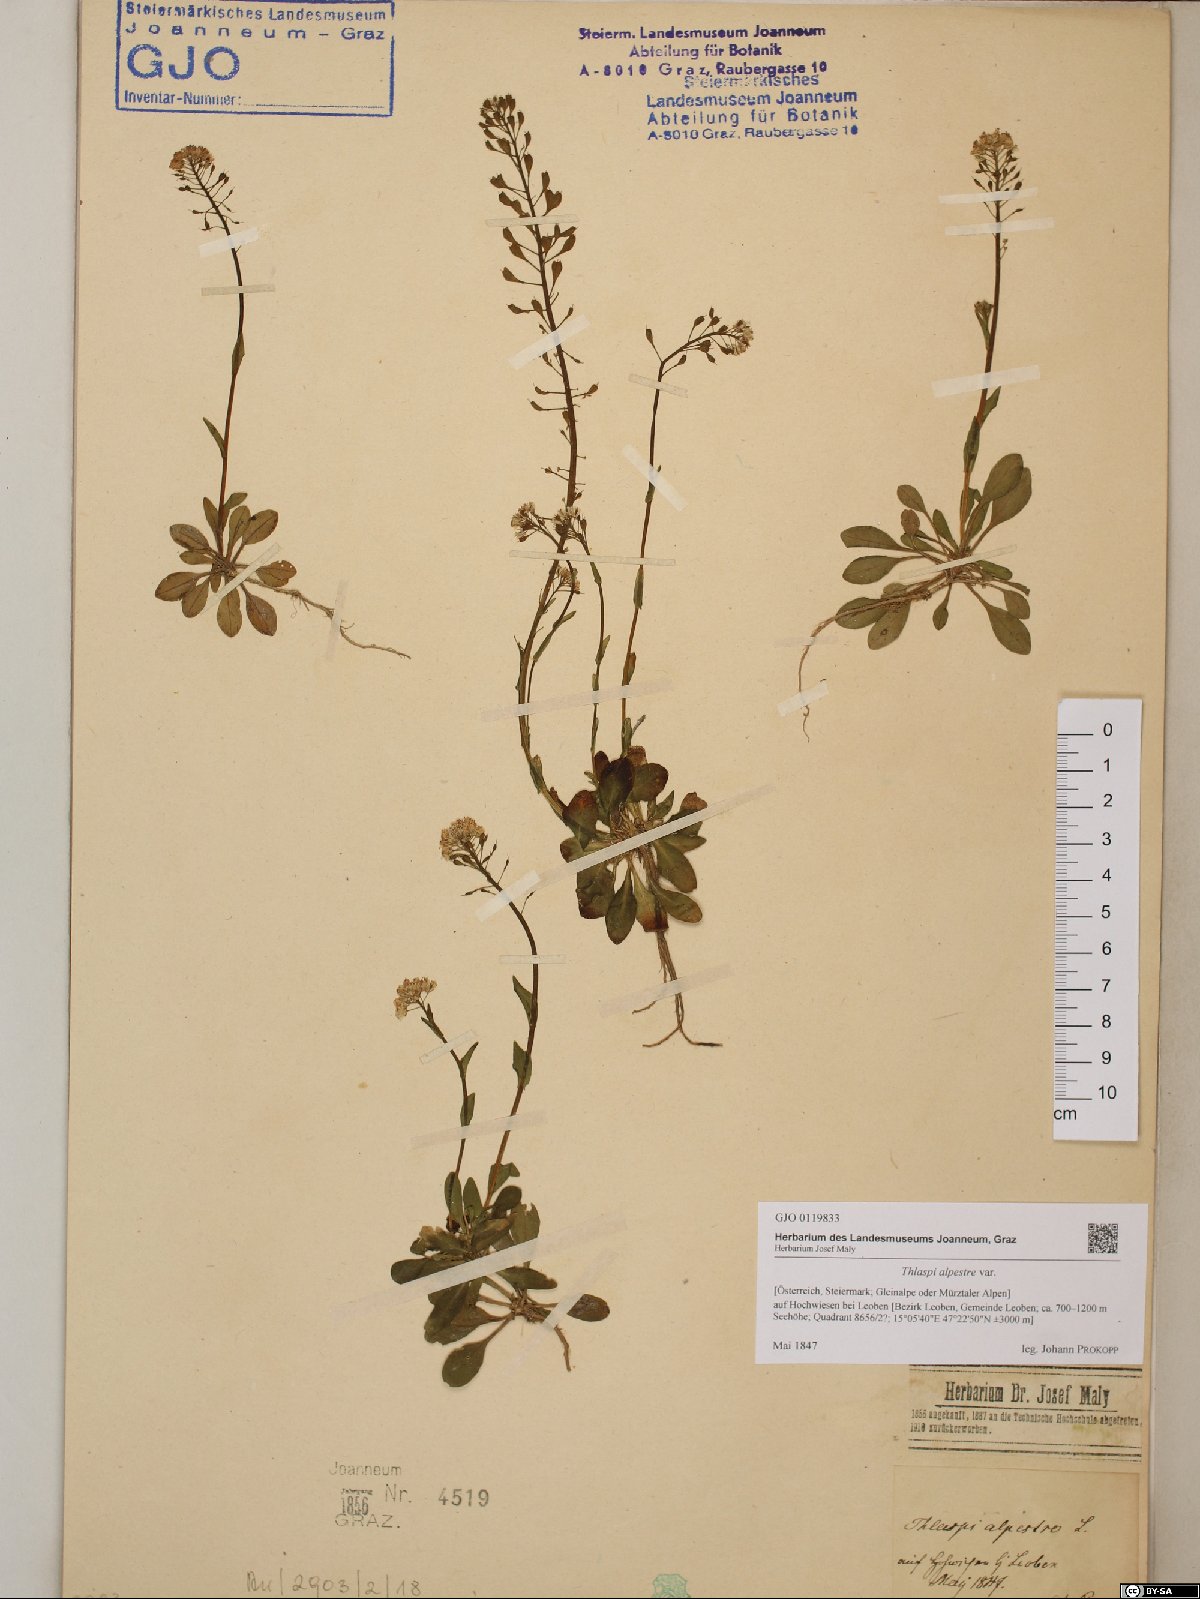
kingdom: Plantae
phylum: Tracheophyta
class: Magnoliopsida
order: Brassicales
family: Brassicaceae
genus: Noccaea
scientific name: Noccaea caerulescens
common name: Alpine pennycress
